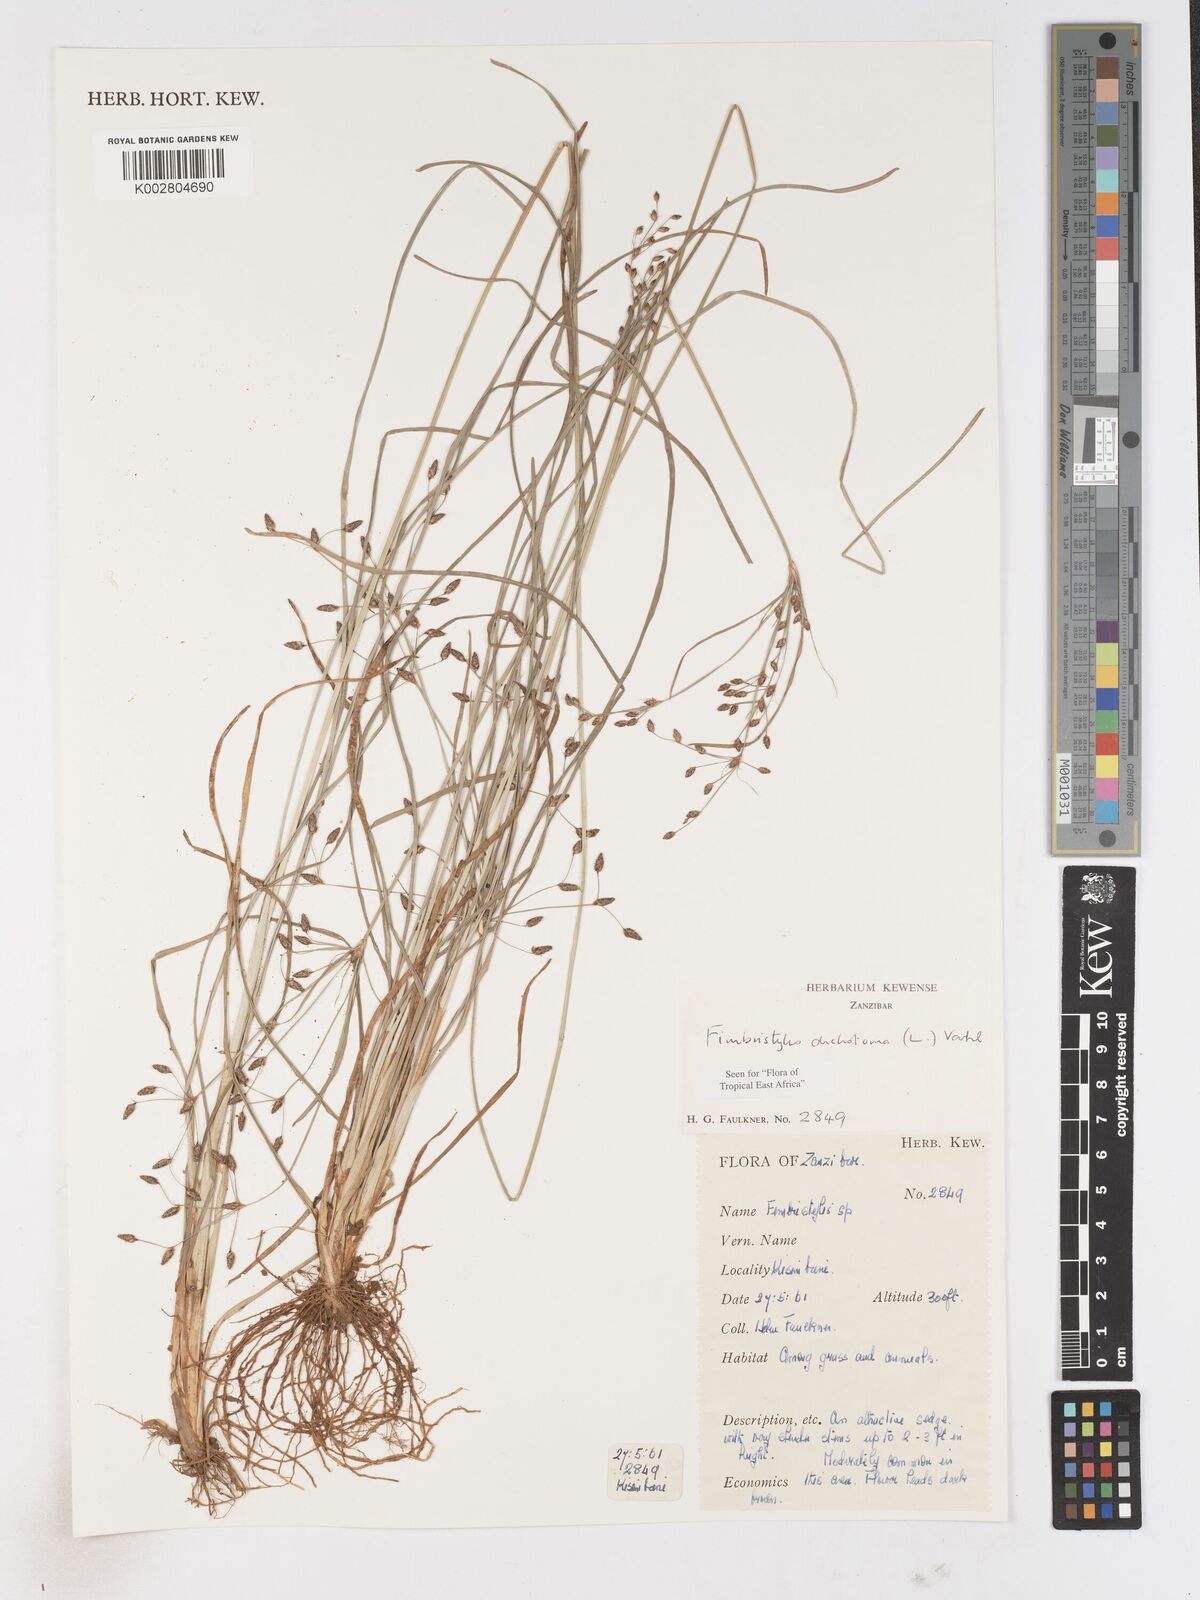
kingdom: Plantae
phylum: Tracheophyta
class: Liliopsida
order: Poales
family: Cyperaceae
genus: Fimbristylis
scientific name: Fimbristylis dichotoma
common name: Forked fimbry
